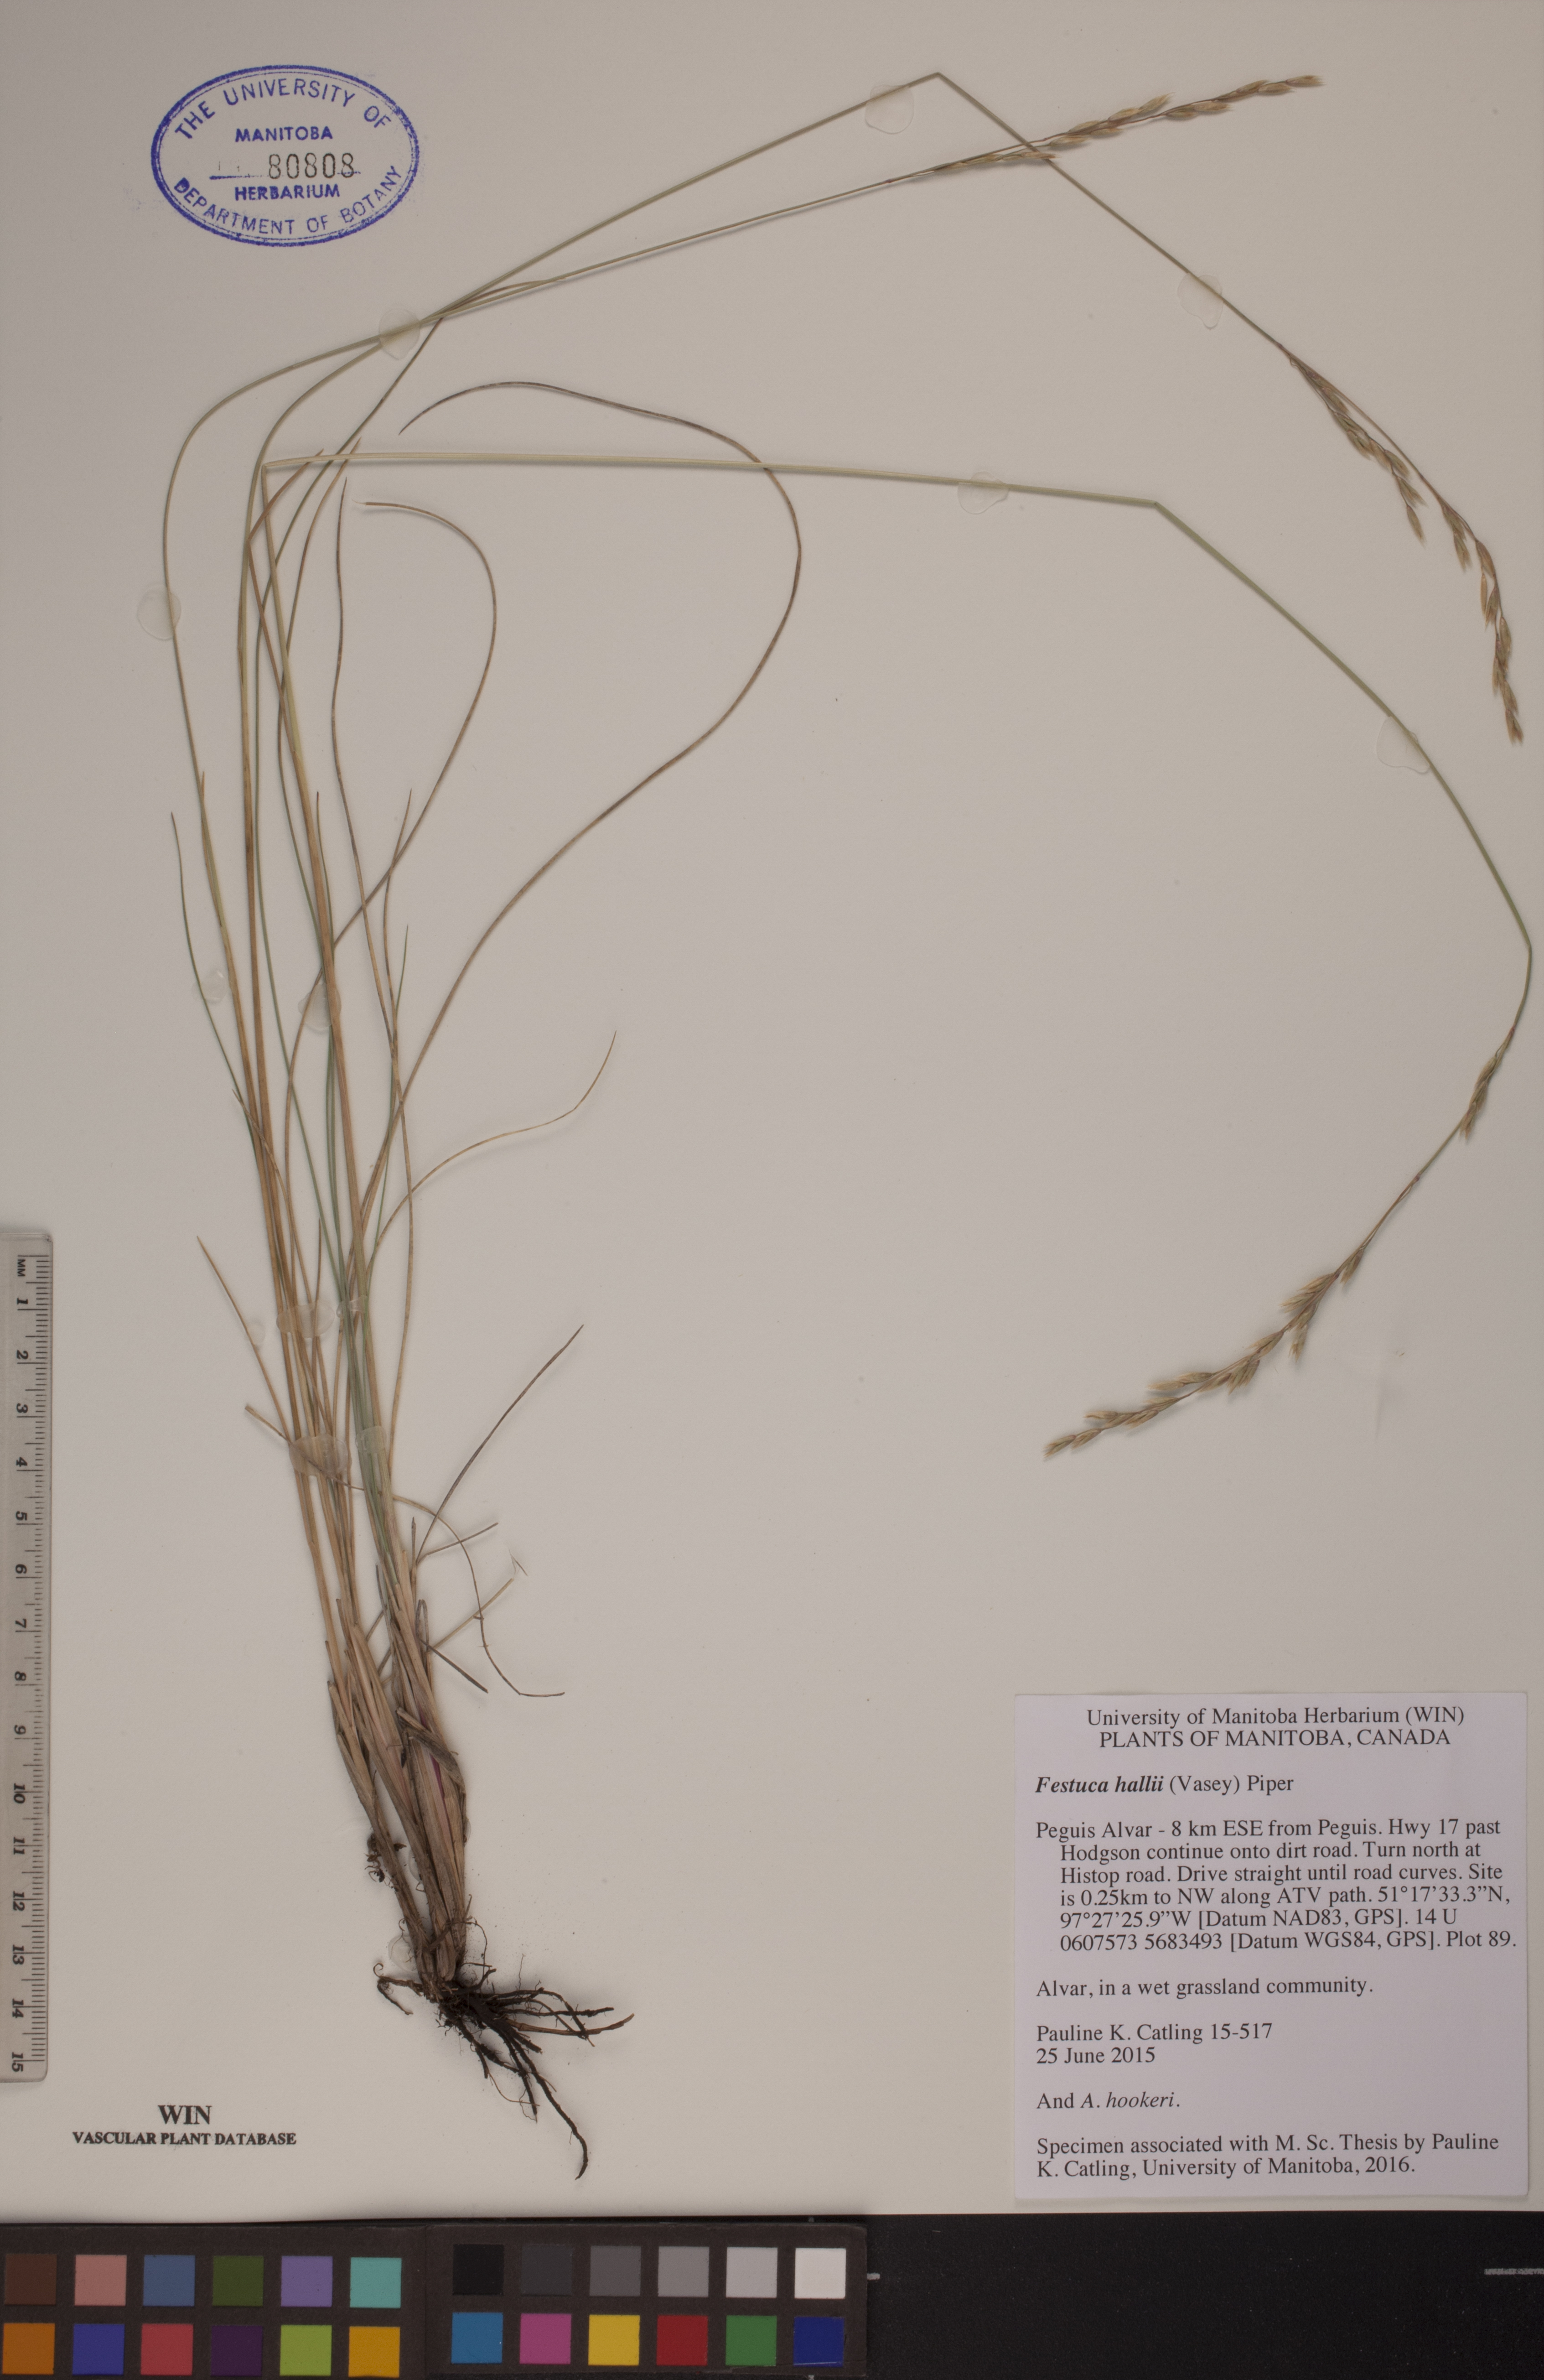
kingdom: Plantae
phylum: Tracheophyta
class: Liliopsida
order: Poales
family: Poaceae
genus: Festuca
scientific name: Festuca hallii
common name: Hall's fescue
